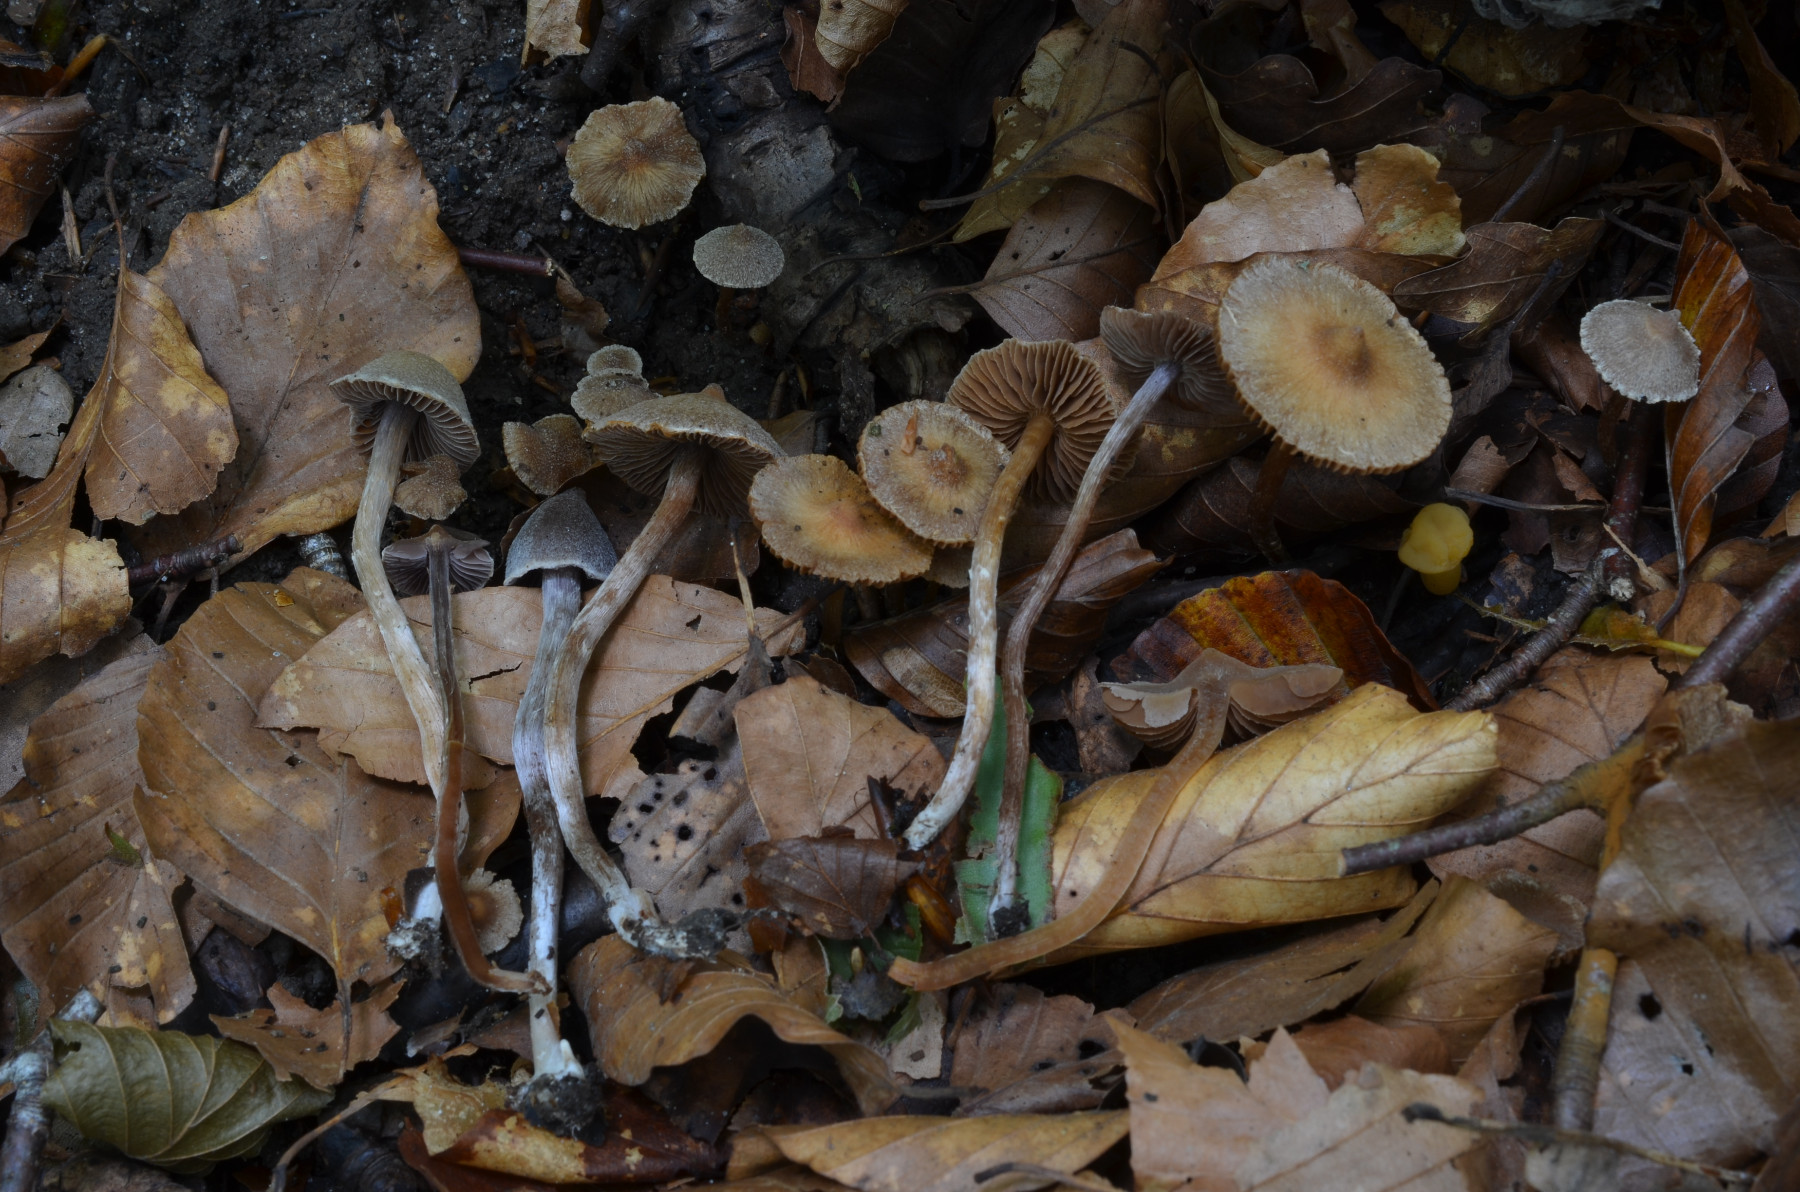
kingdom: Fungi
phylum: Basidiomycota
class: Agaricomycetes
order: Agaricales
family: Cortinariaceae
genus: Cortinarius
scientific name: Cortinarius violaceopapillatus
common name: brunøjet slørhat
